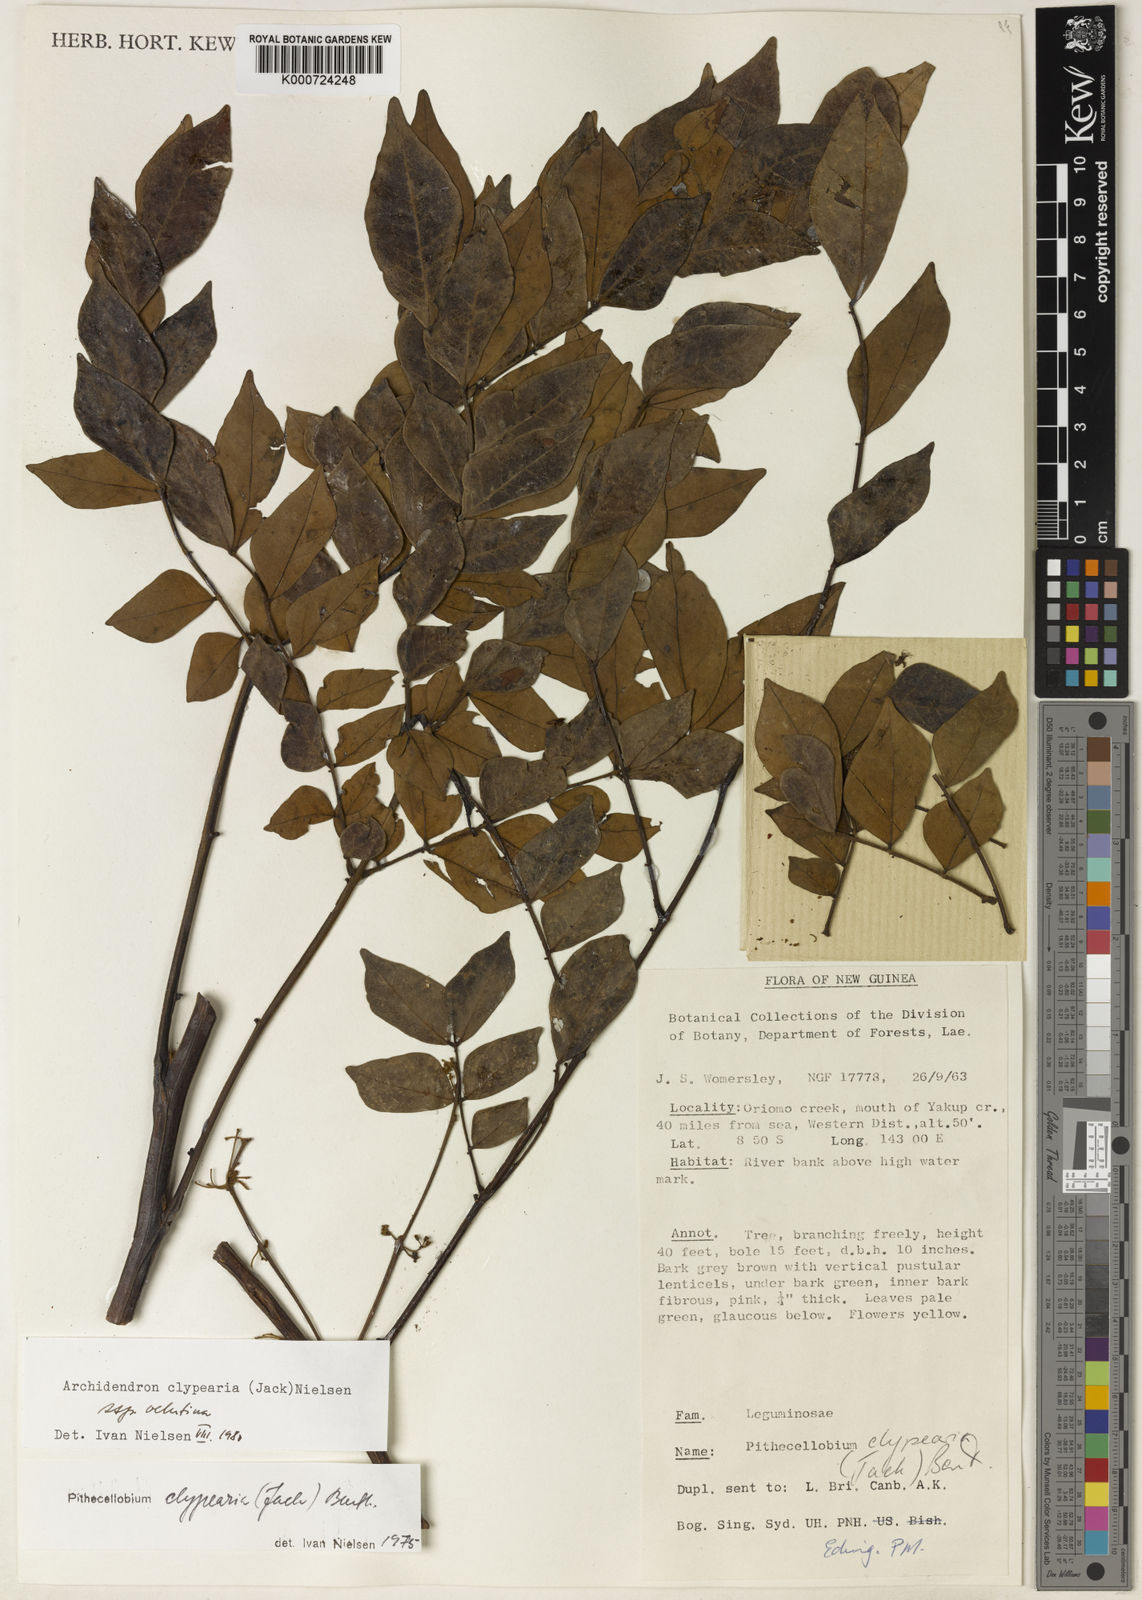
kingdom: Plantae
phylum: Tracheophyta
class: Magnoliopsida
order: Fabales
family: Fabaceae
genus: Archidendron
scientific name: Archidendron clypearia
